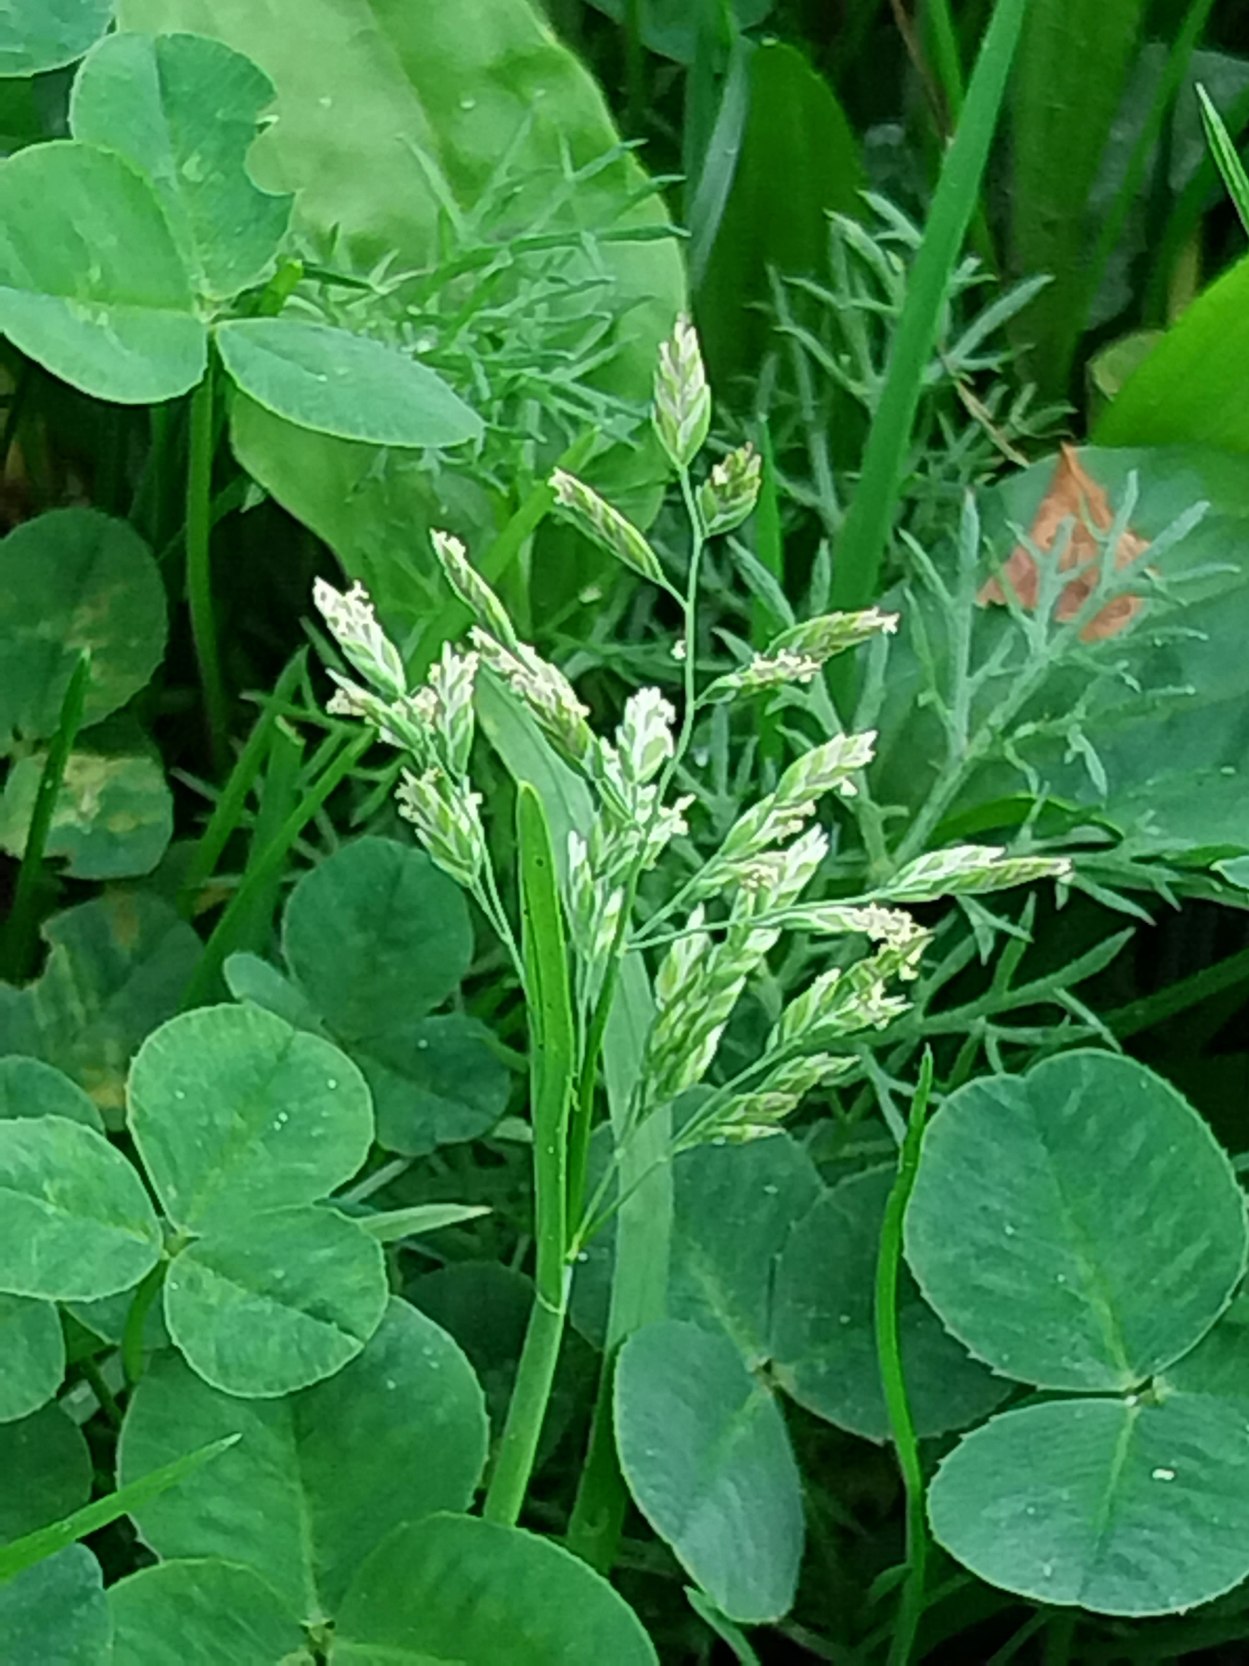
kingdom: Plantae
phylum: Tracheophyta
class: Liliopsida
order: Poales
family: Poaceae
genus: Poa
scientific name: Poa annua
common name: Enårig rapgræs
